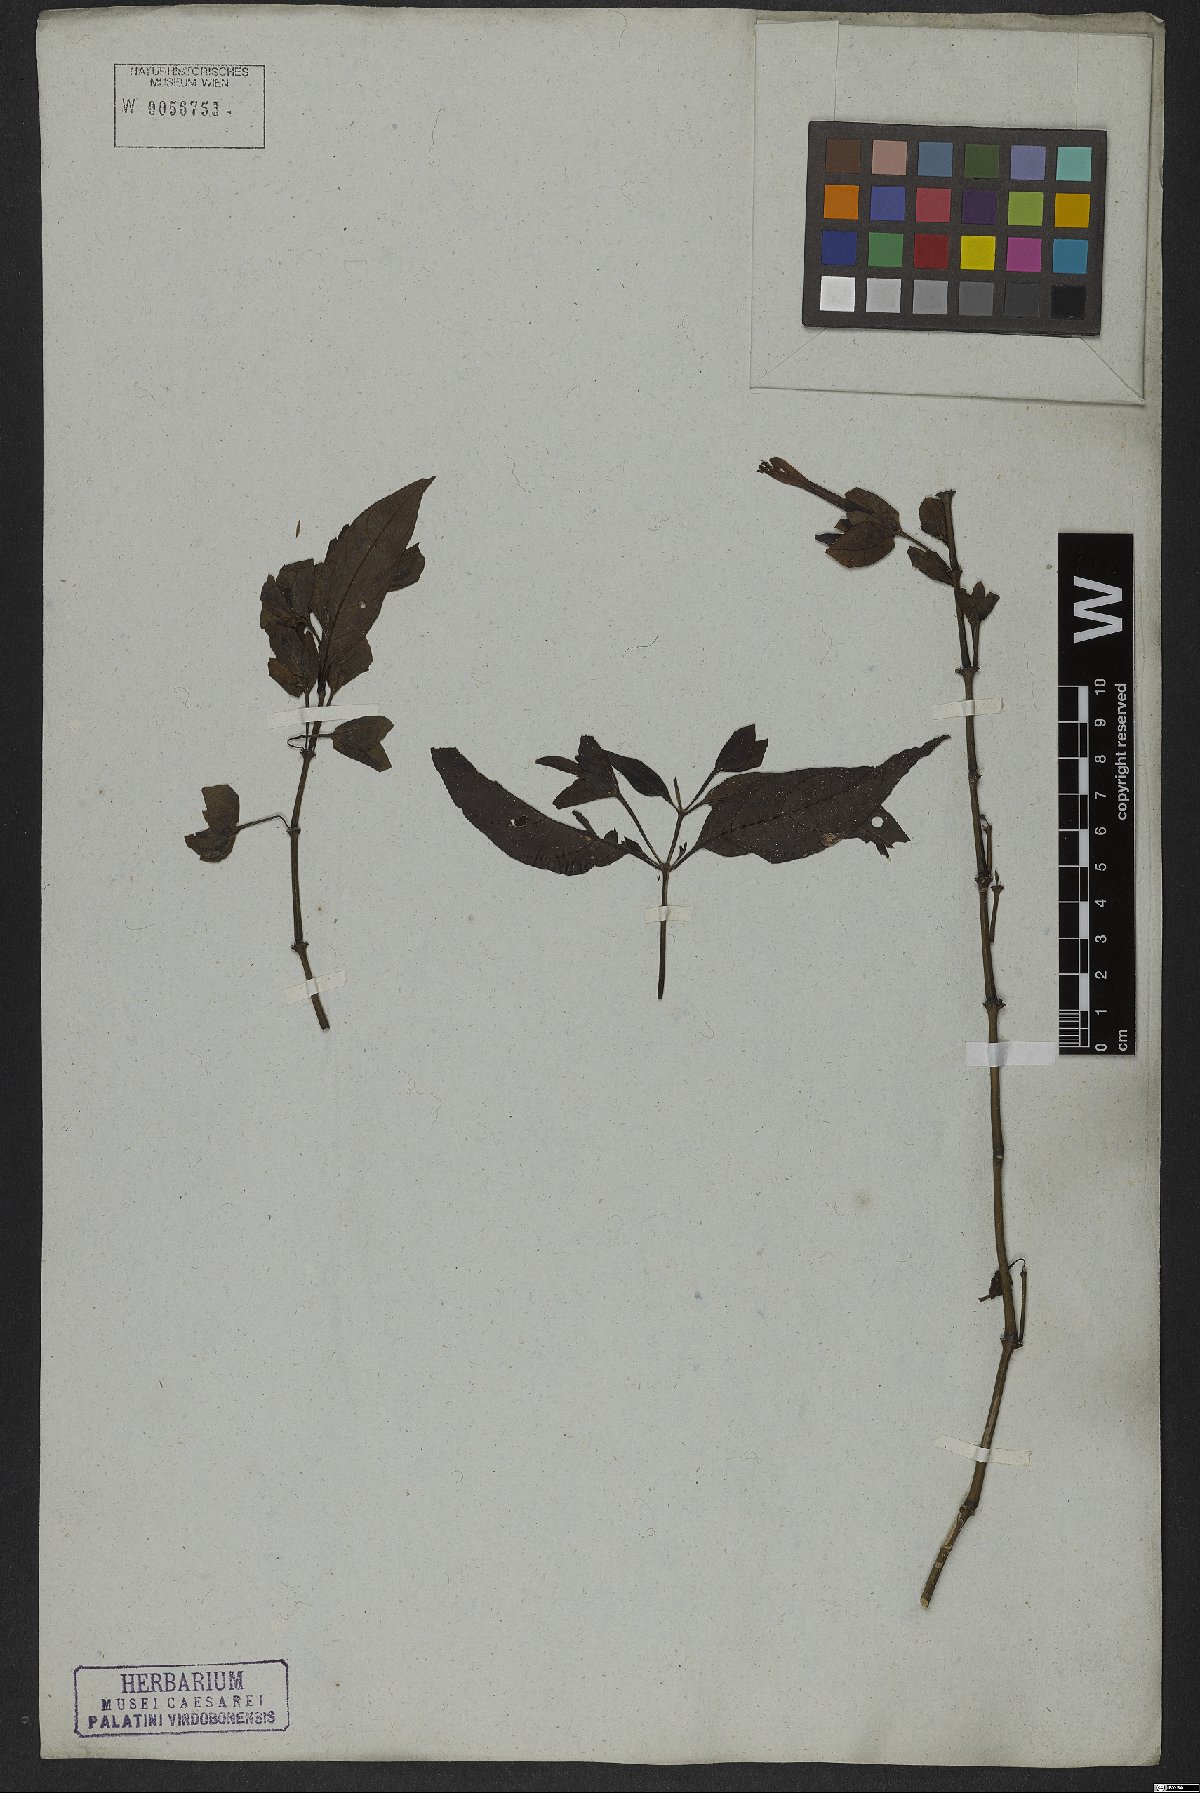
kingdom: Plantae
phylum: Tracheophyta
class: Magnoliopsida
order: Lamiales
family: Acanthaceae
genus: Justicia
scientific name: Justicia involucrata
